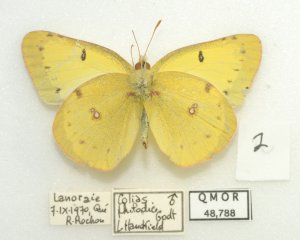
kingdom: Animalia
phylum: Arthropoda
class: Insecta
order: Lepidoptera
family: Pieridae
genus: Colias
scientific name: Colias philodice
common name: Clouded Sulphur
